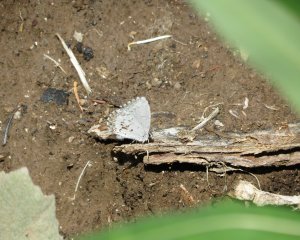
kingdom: Animalia
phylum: Arthropoda
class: Insecta
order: Lepidoptera
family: Lycaenidae
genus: Celastrina
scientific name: Celastrina lucia
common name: Northern Spring Azure
